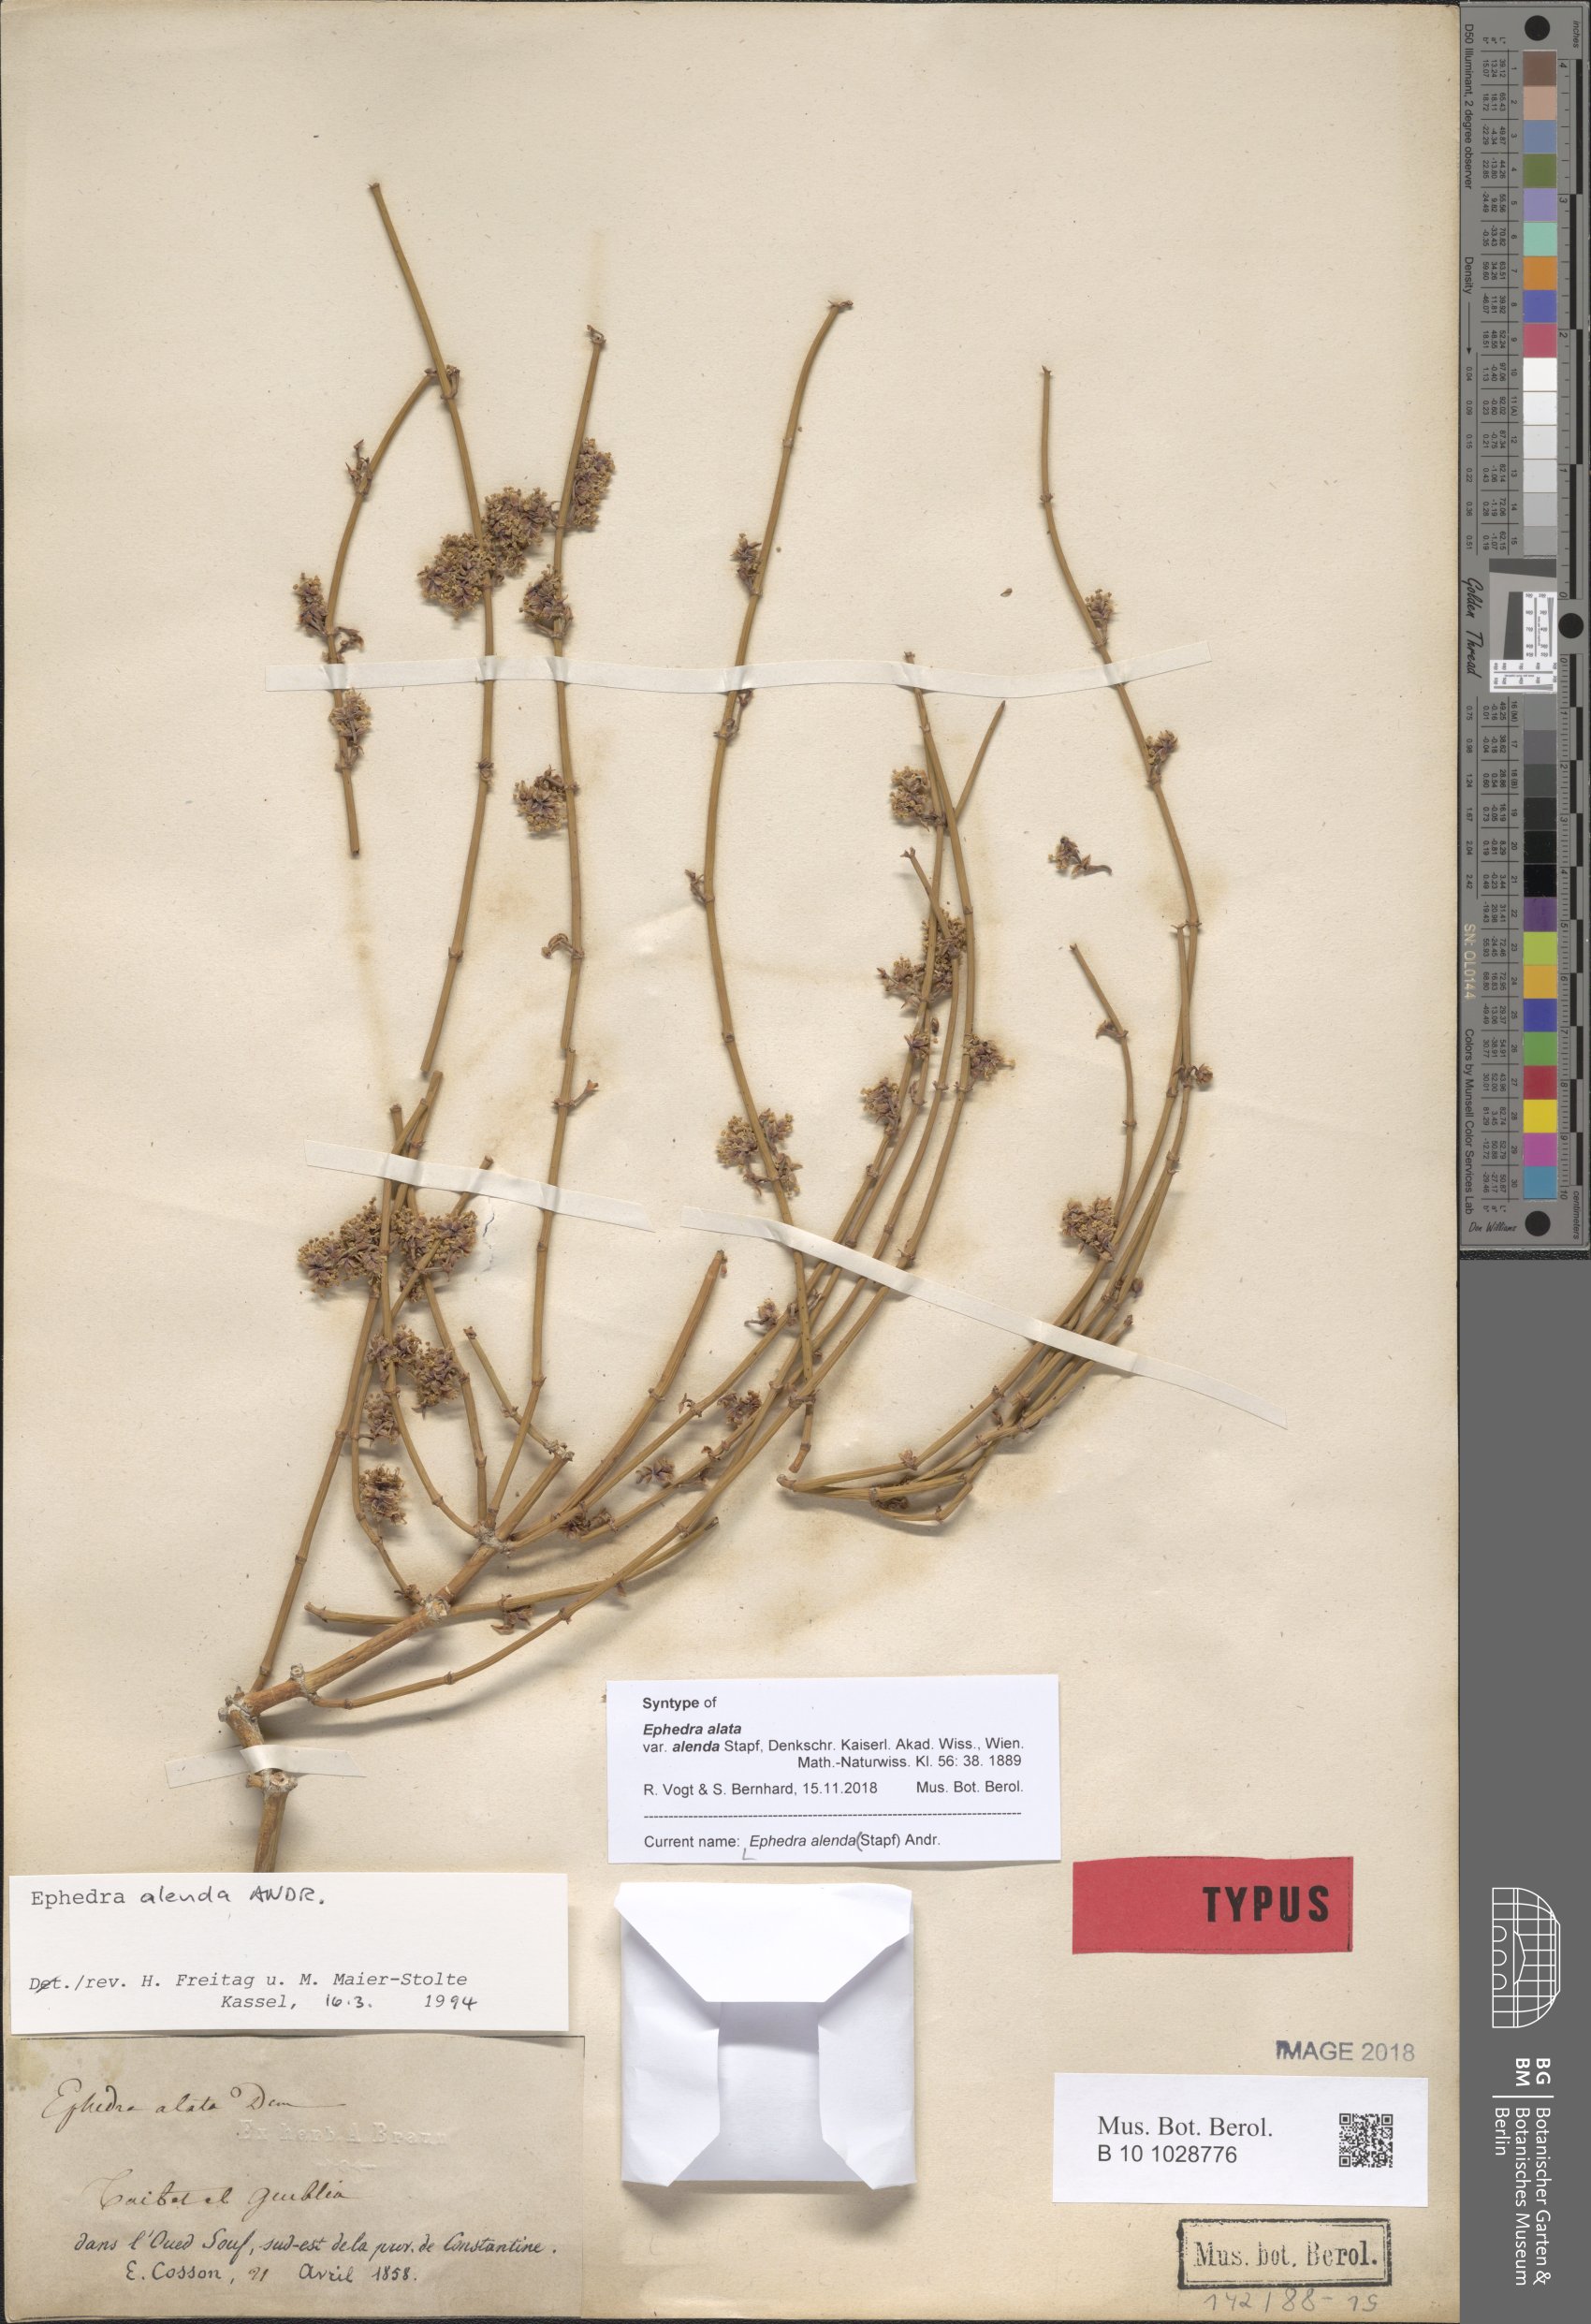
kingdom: Plantae
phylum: Tracheophyta
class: Gnetopsida
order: Ephedrales
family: Ephedraceae
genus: Ephedra
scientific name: Ephedra alata
